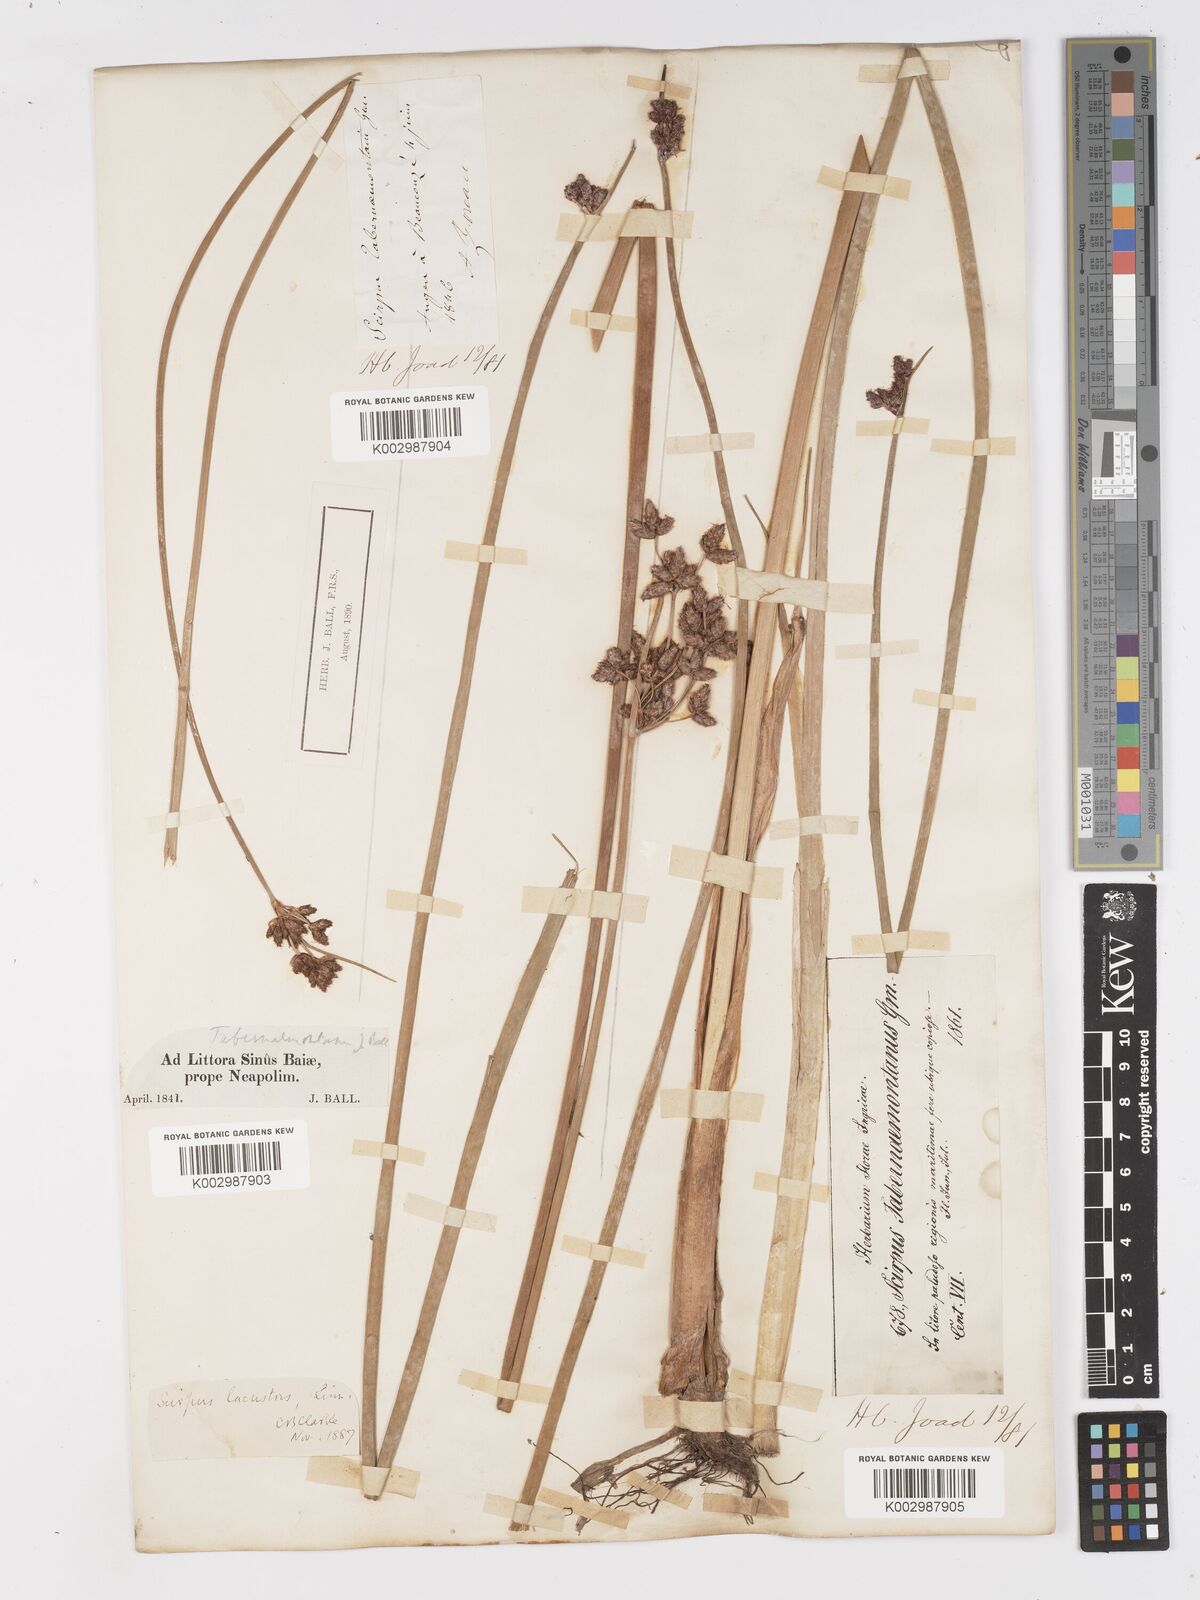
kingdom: Plantae
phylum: Tracheophyta
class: Liliopsida
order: Poales
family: Cyperaceae
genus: Schoenoplectus
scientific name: Schoenoplectus tabernaemontani
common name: Grey club-rush
